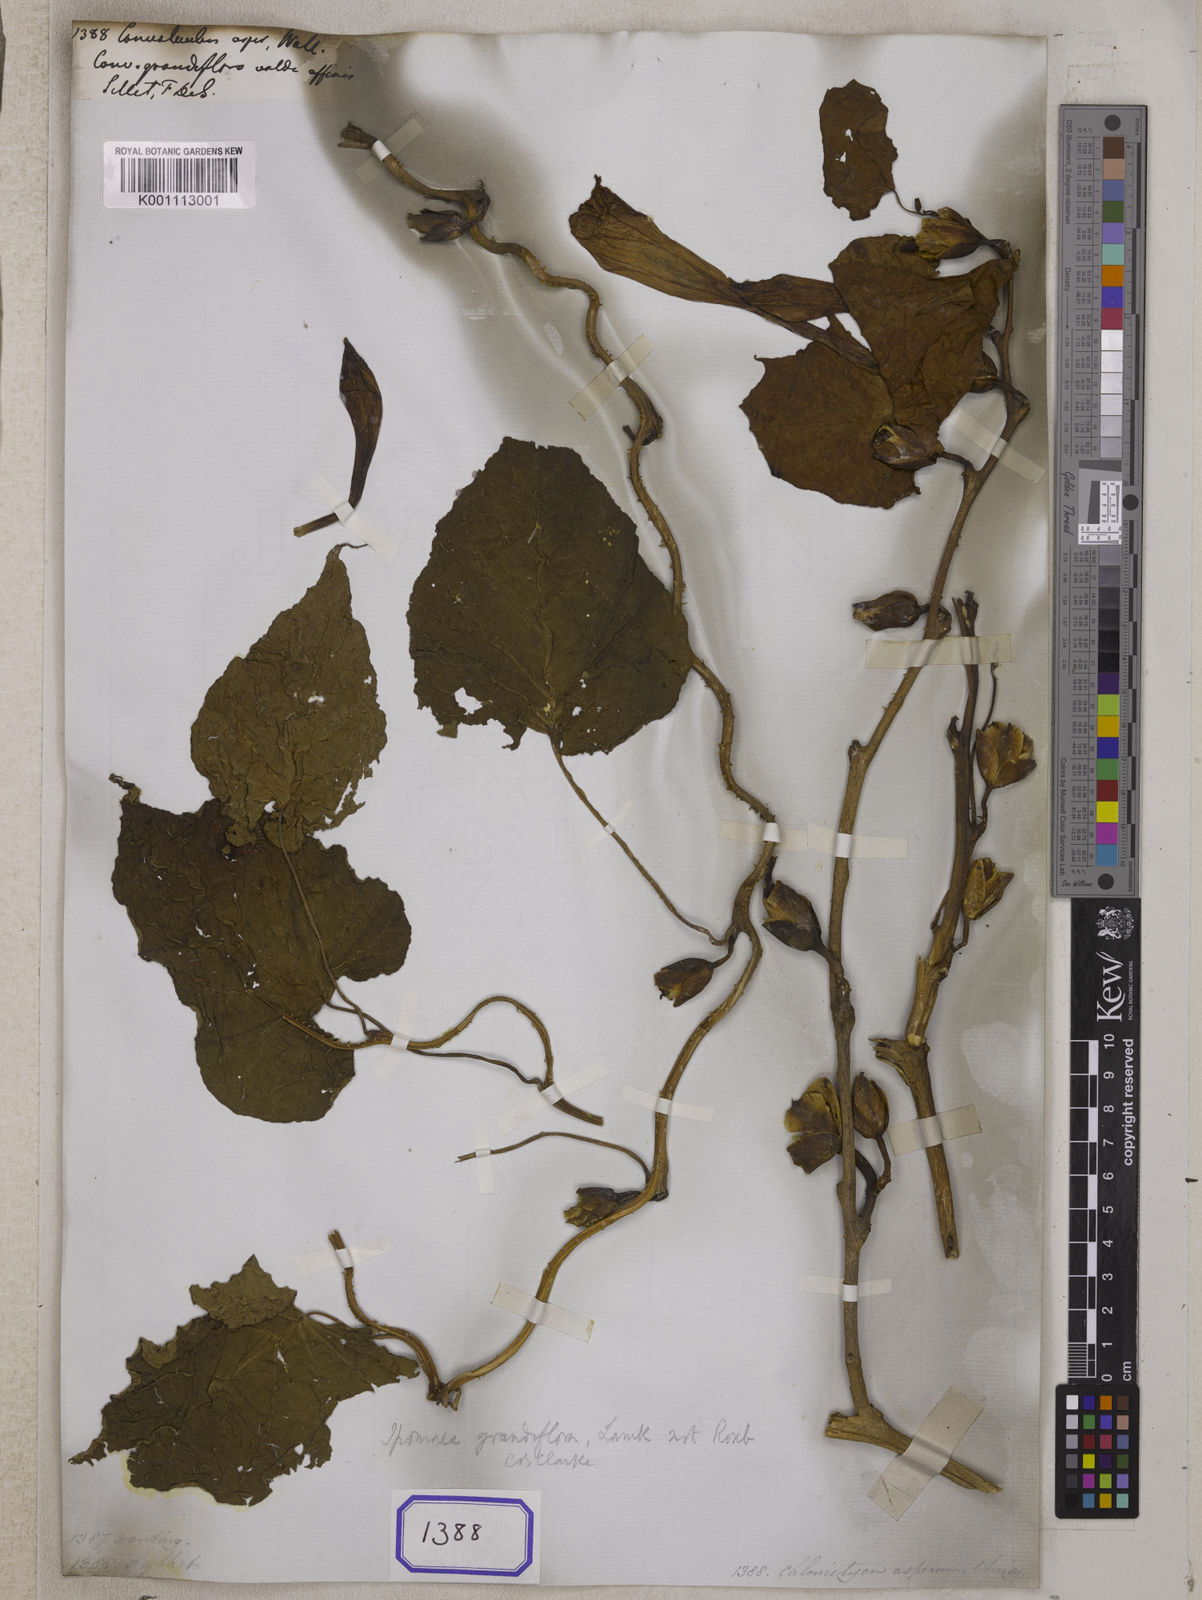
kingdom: Plantae
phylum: Tracheophyta
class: Magnoliopsida
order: Solanales
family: Convolvulaceae
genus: Ipomoea
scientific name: Ipomoea aspera
